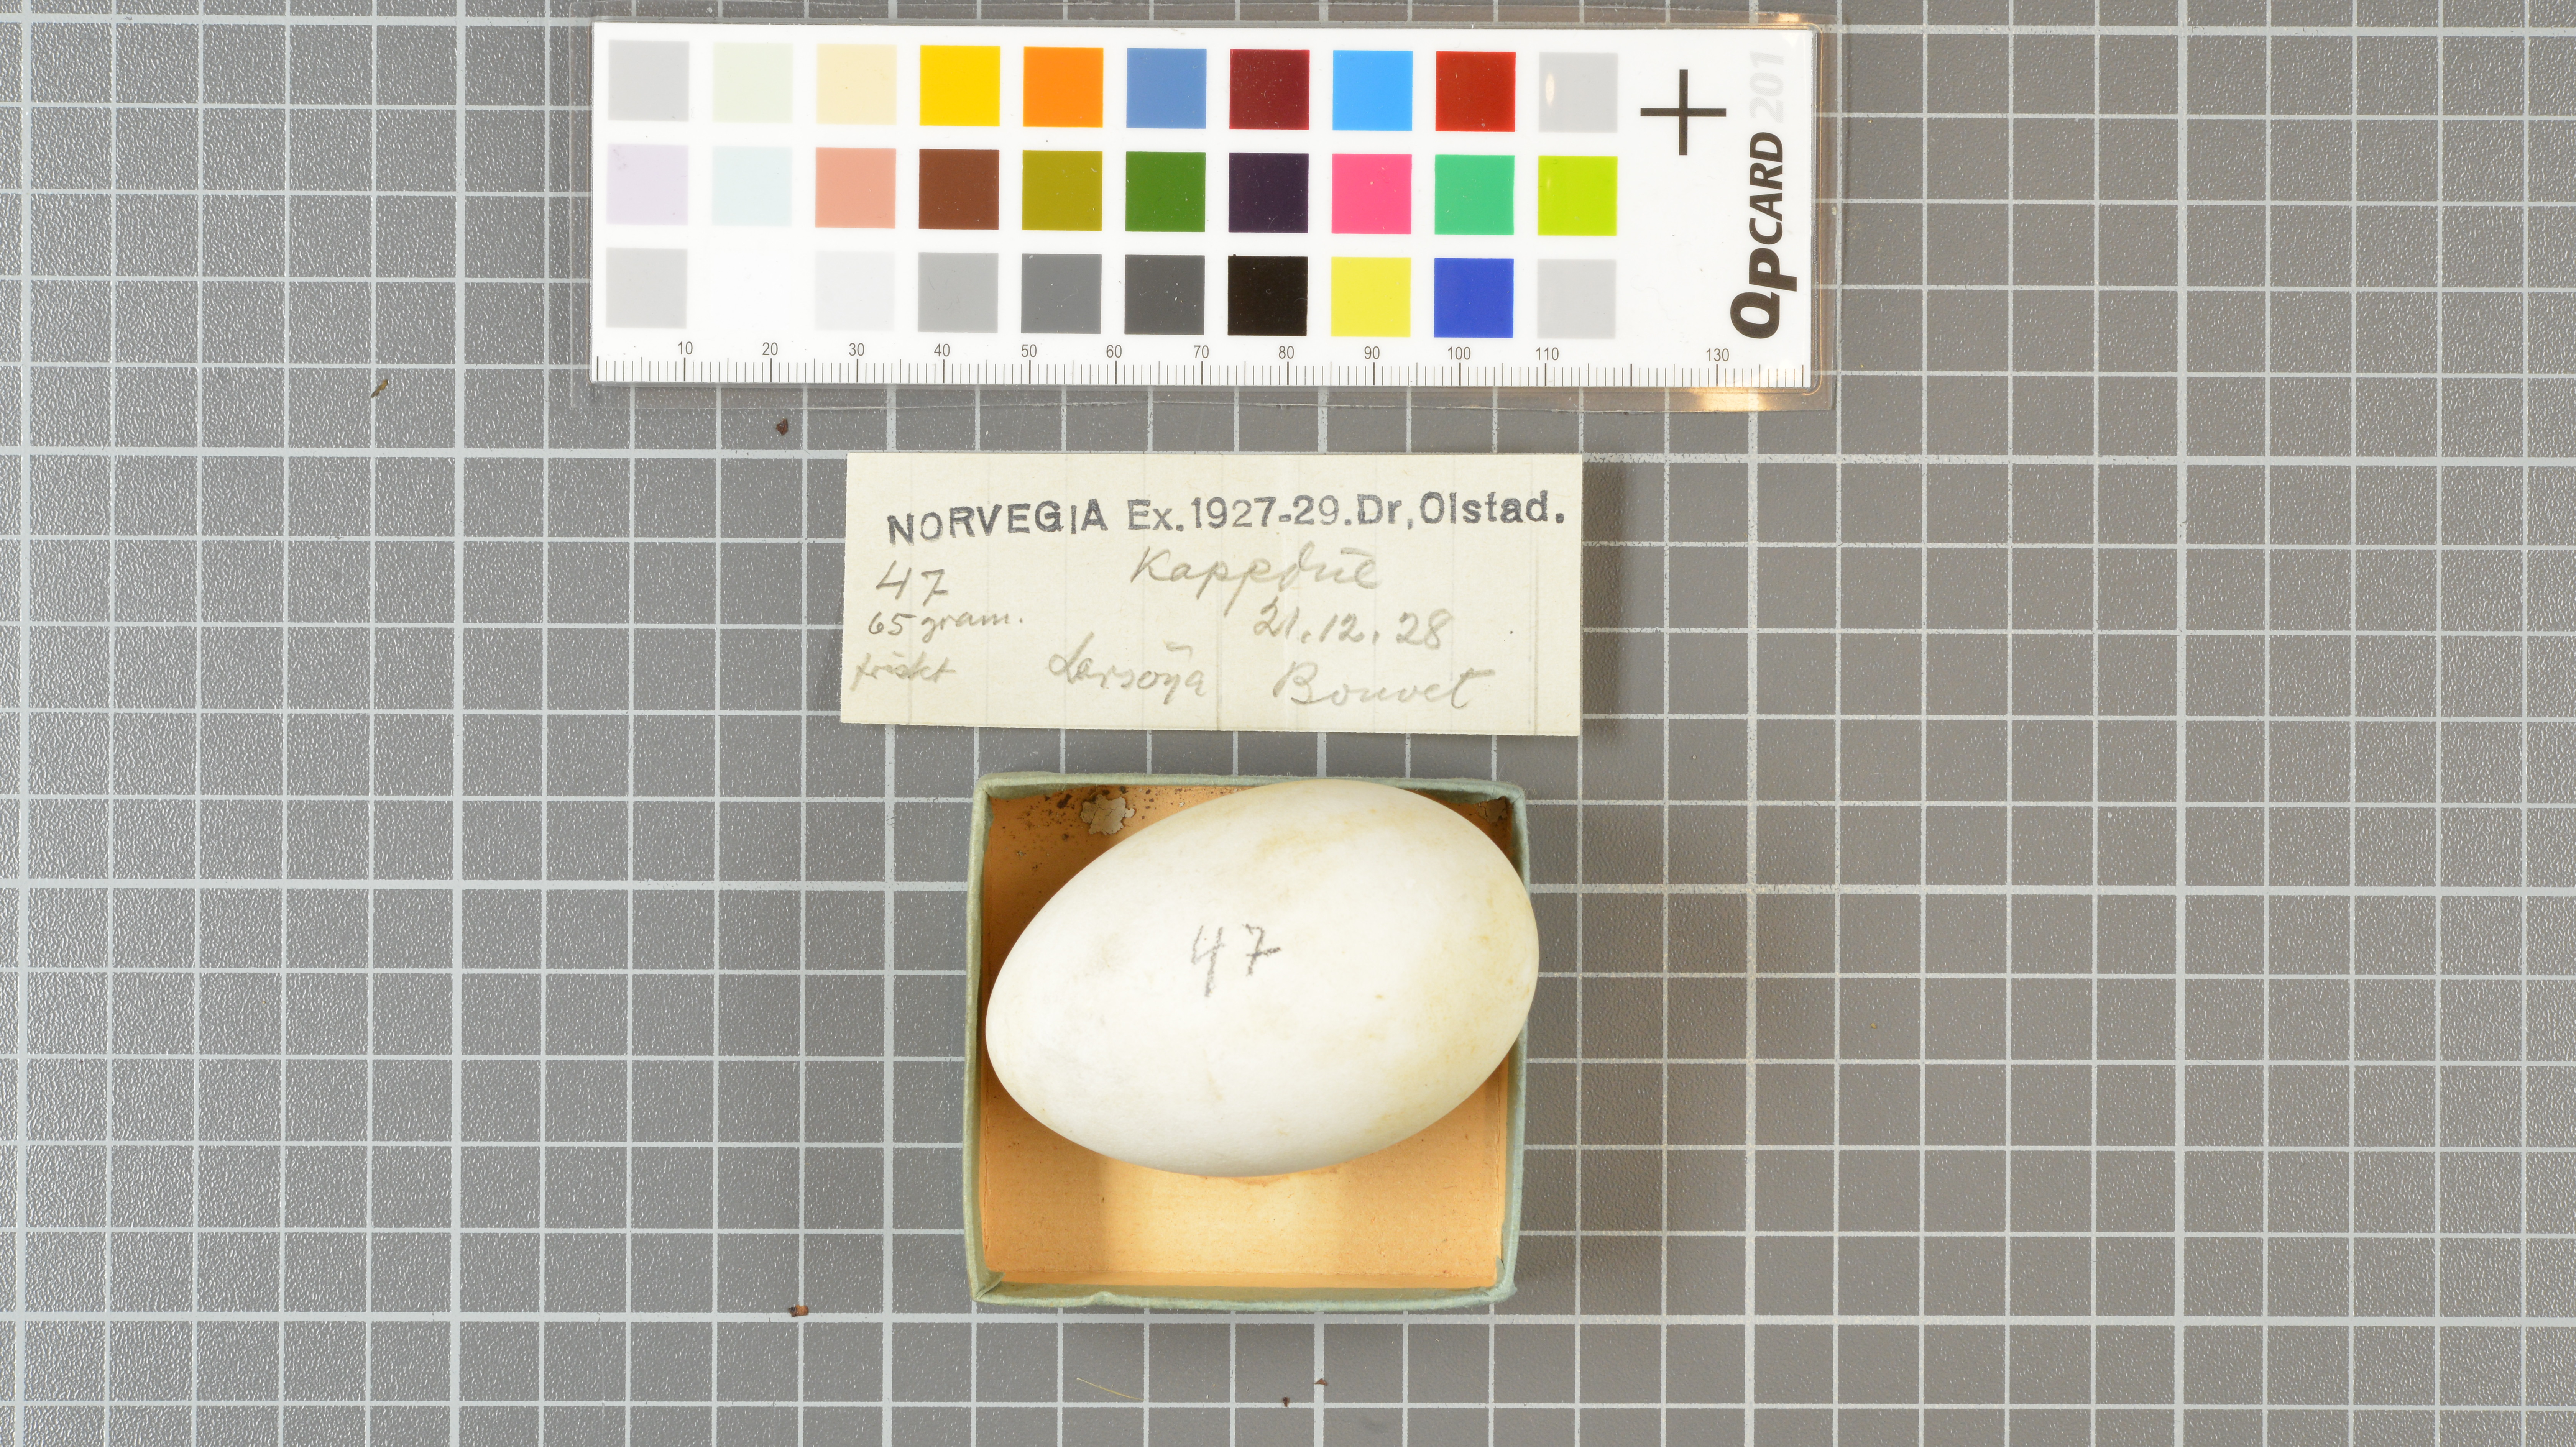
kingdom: Animalia
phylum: Chordata
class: Aves
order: Procellariiformes
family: Procellariidae
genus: Daption
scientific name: Daption capense
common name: Cape petrel
